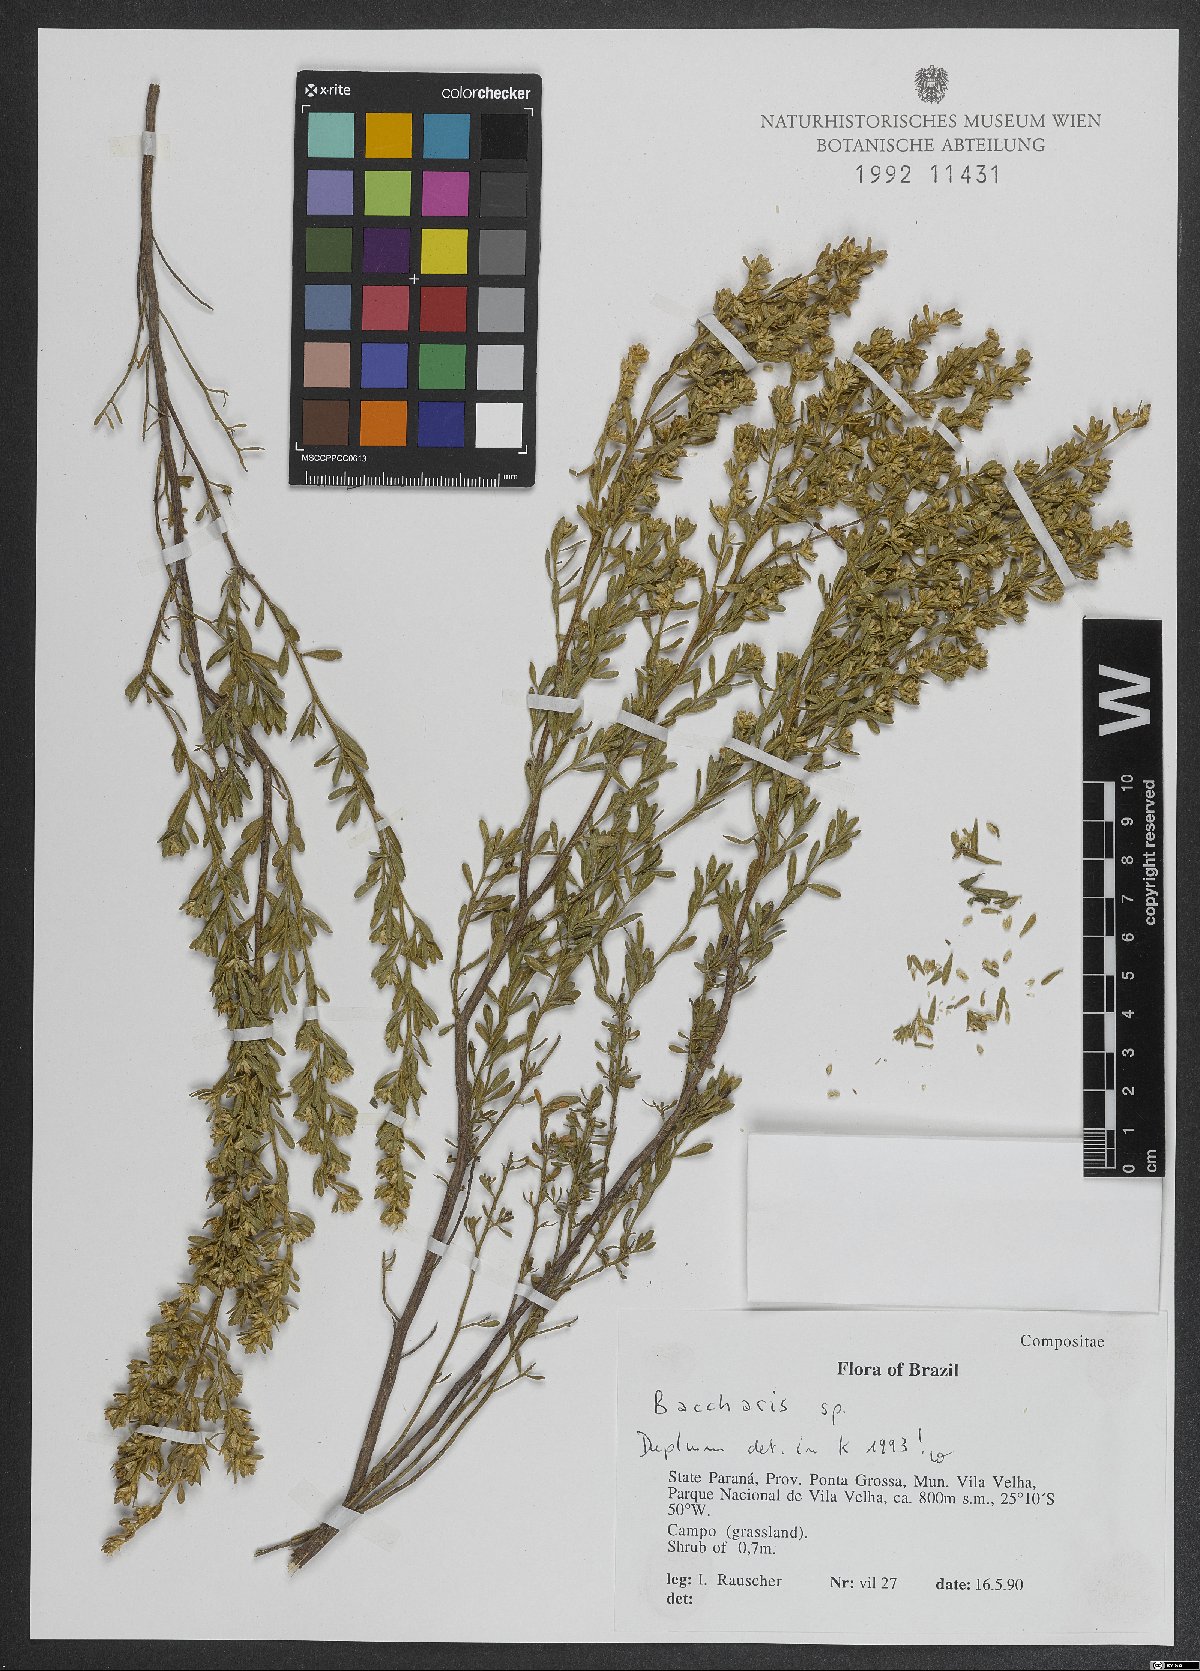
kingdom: Plantae
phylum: Tracheophyta
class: Magnoliopsida
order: Asterales
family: Asteraceae
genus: Baccharis
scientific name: Baccharis
